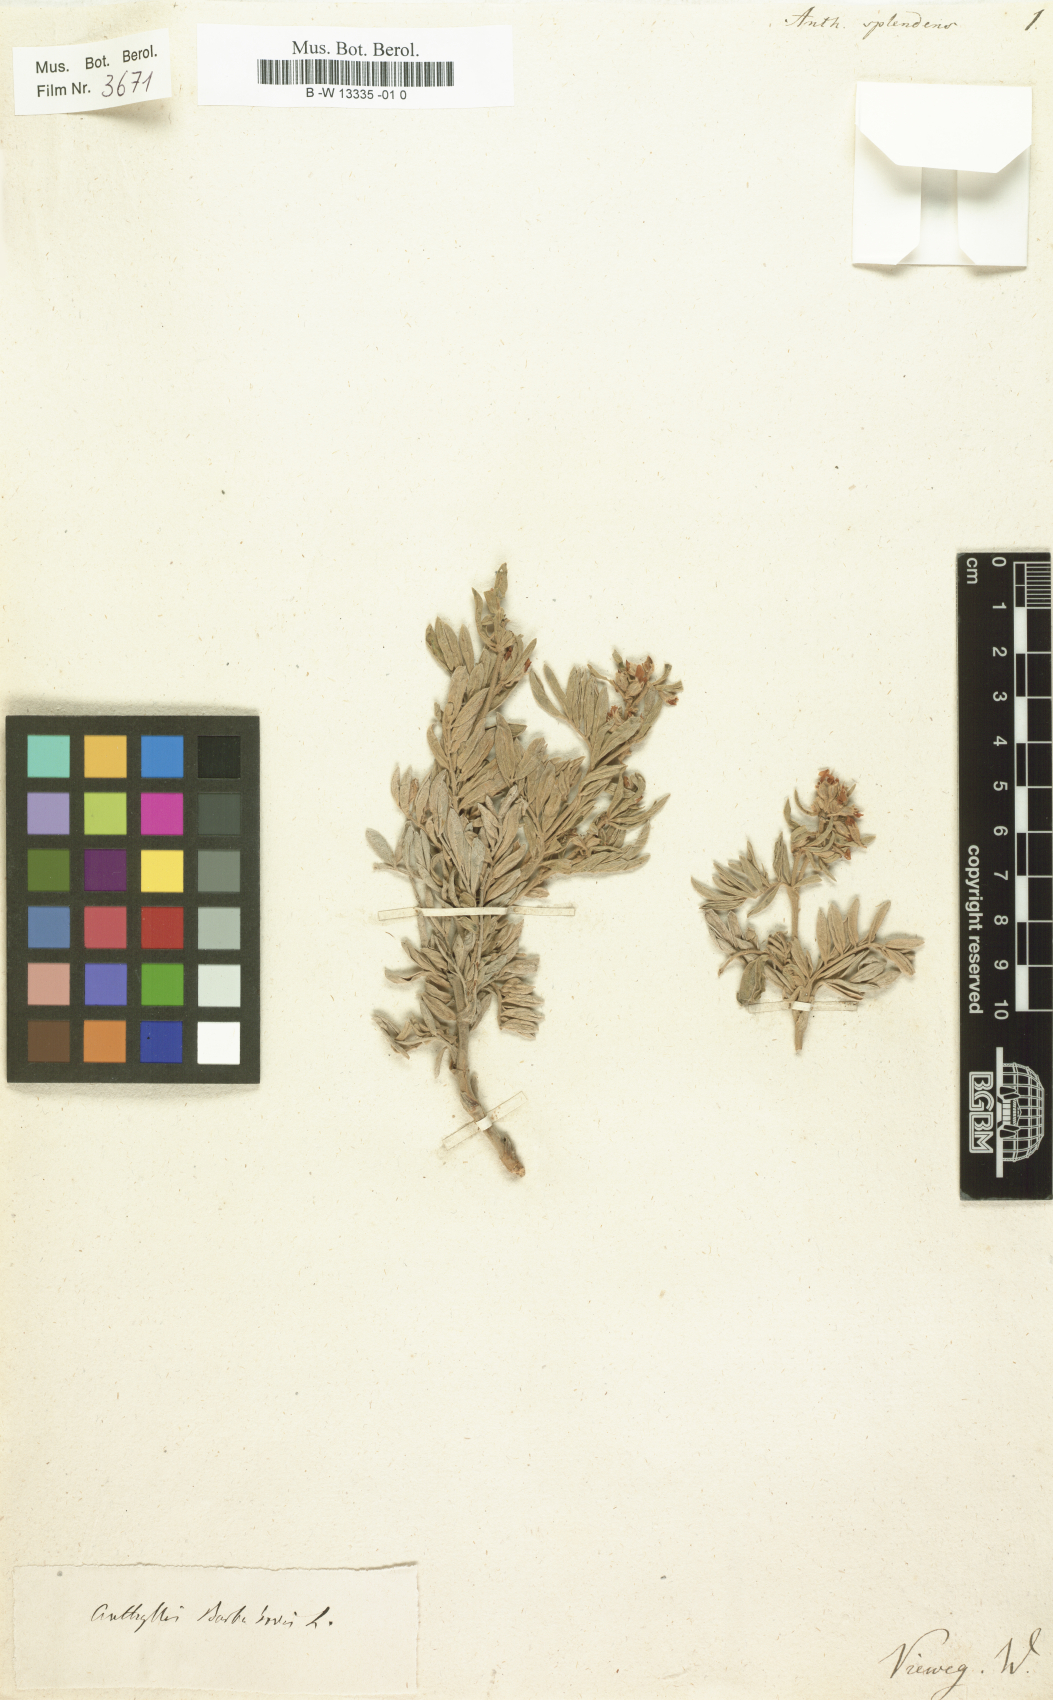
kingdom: Plantae
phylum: Tracheophyta
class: Magnoliopsida
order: Fabales
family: Fabaceae
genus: Anthyllis
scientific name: Anthyllis splendens
